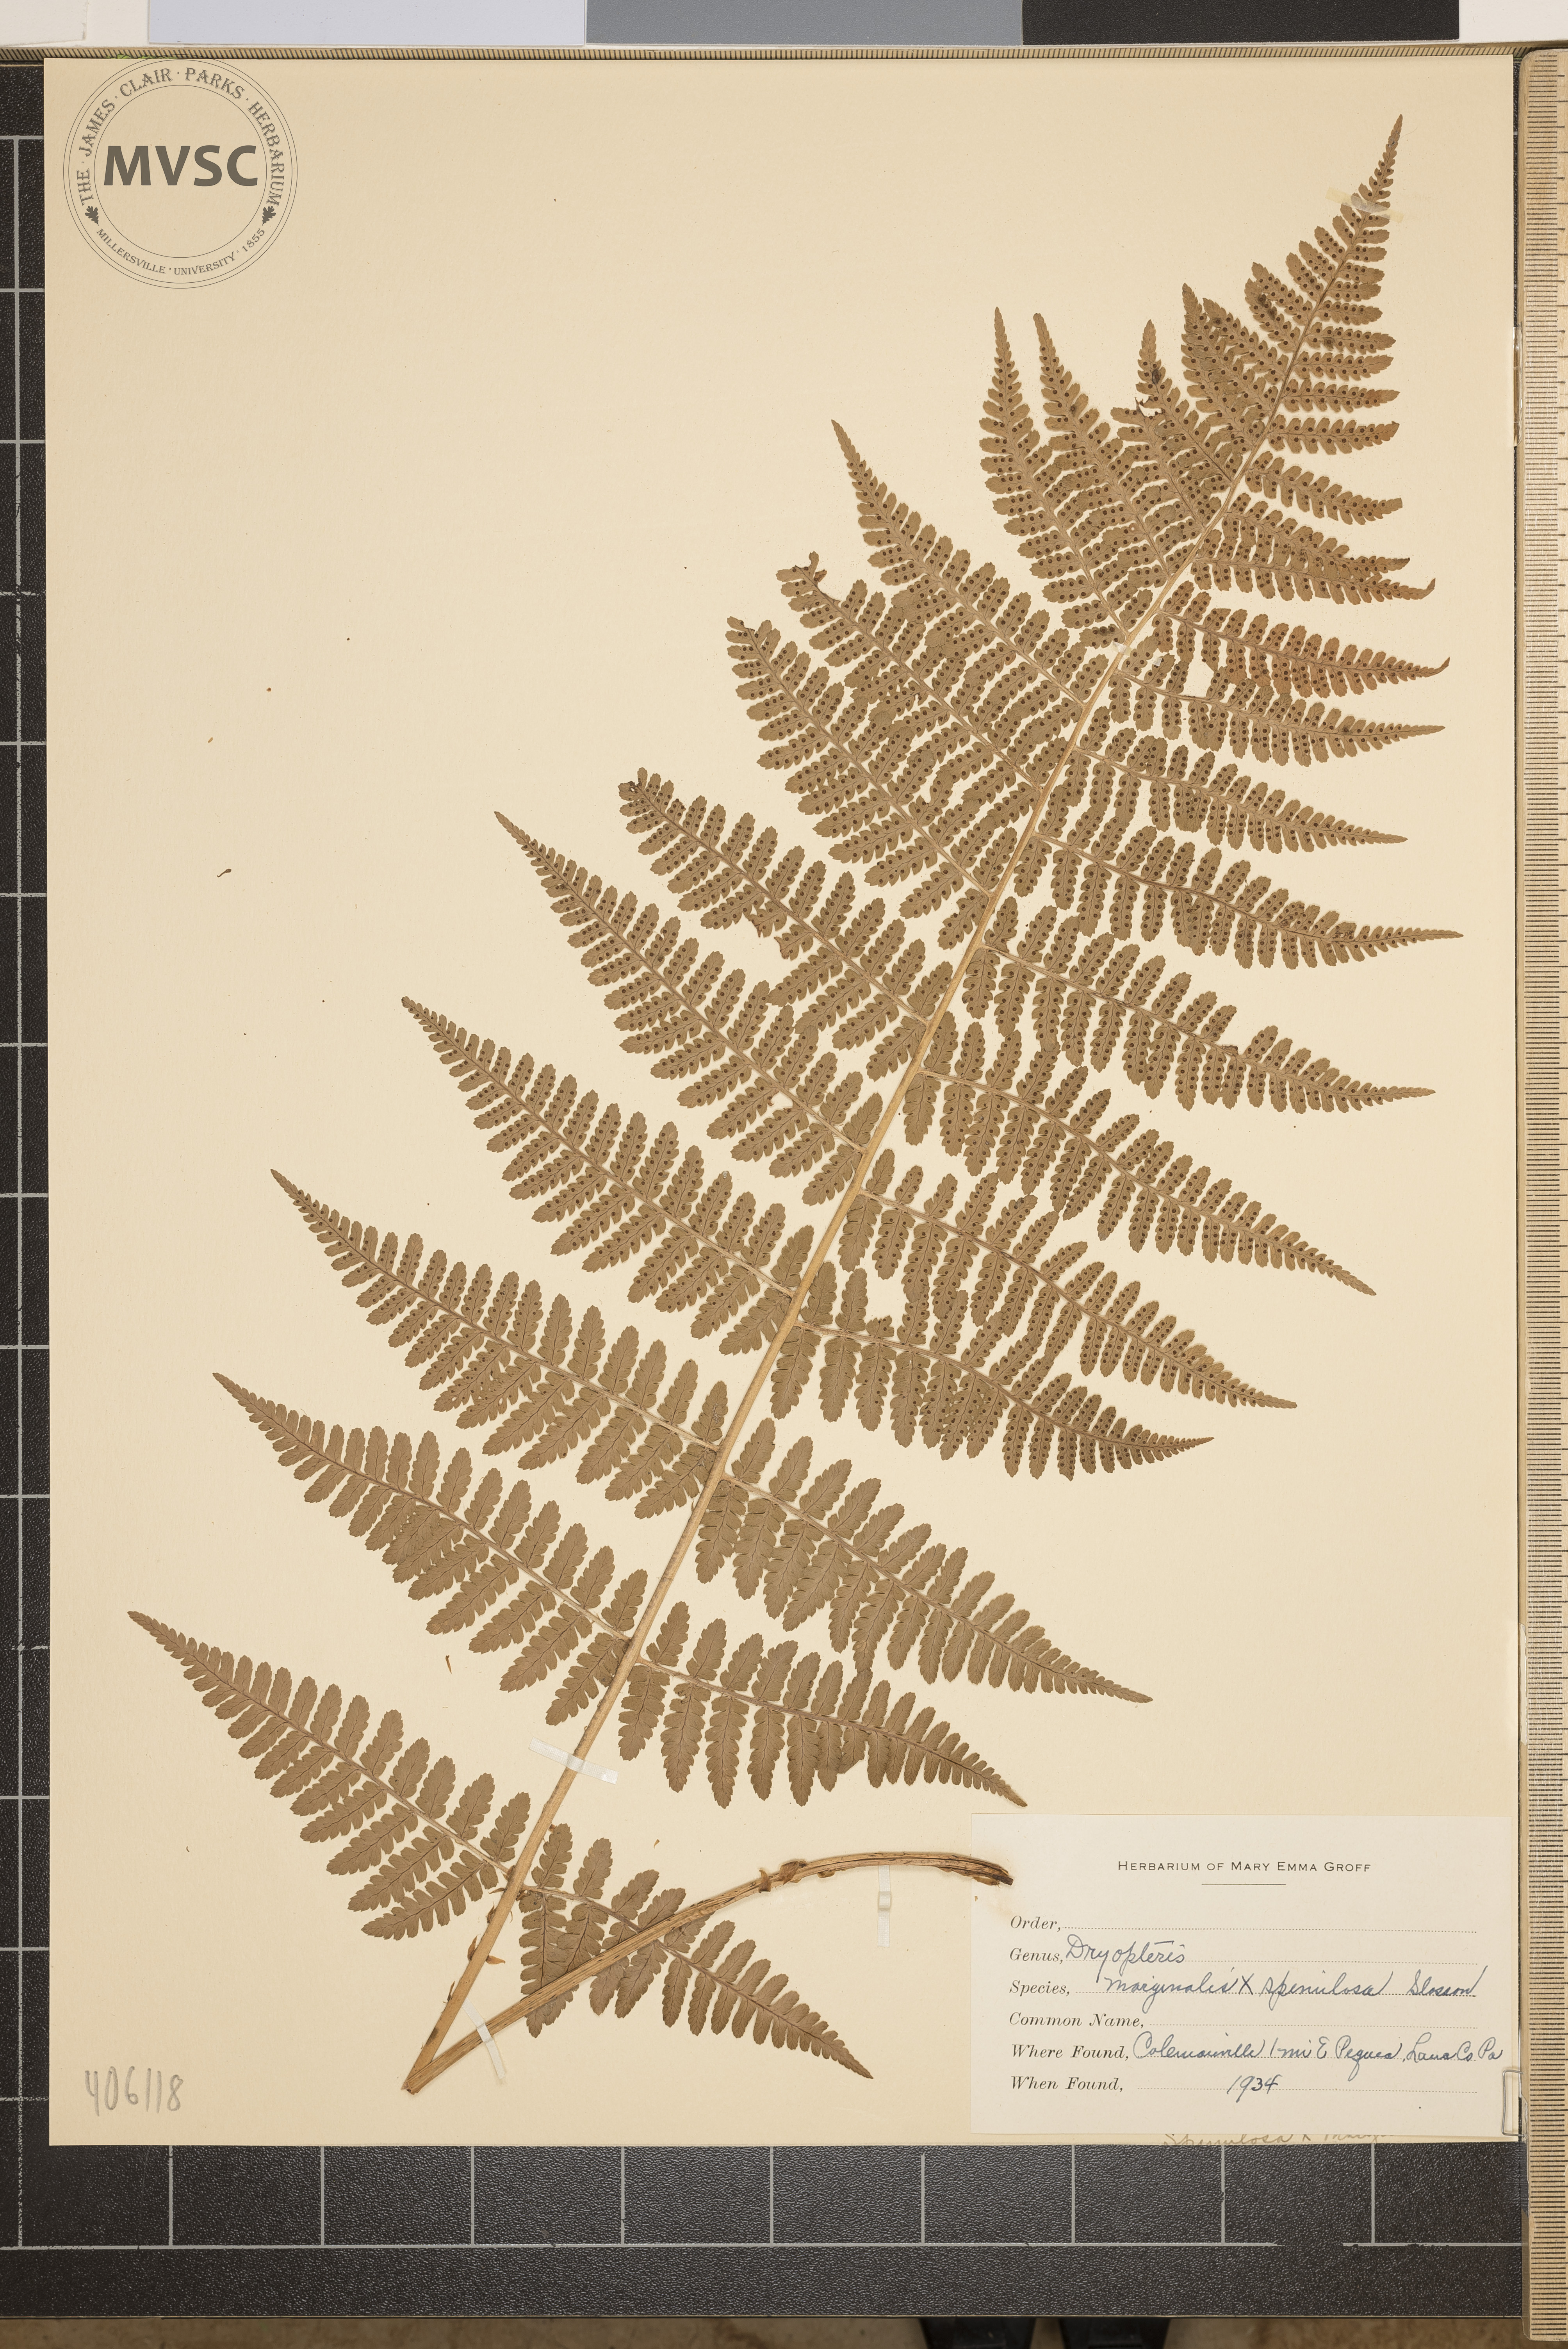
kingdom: Plantae
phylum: Tracheophyta
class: Polypodiopsida
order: Polypodiales
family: Dryopteridaceae
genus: Dryopteris
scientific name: Dryopteris
